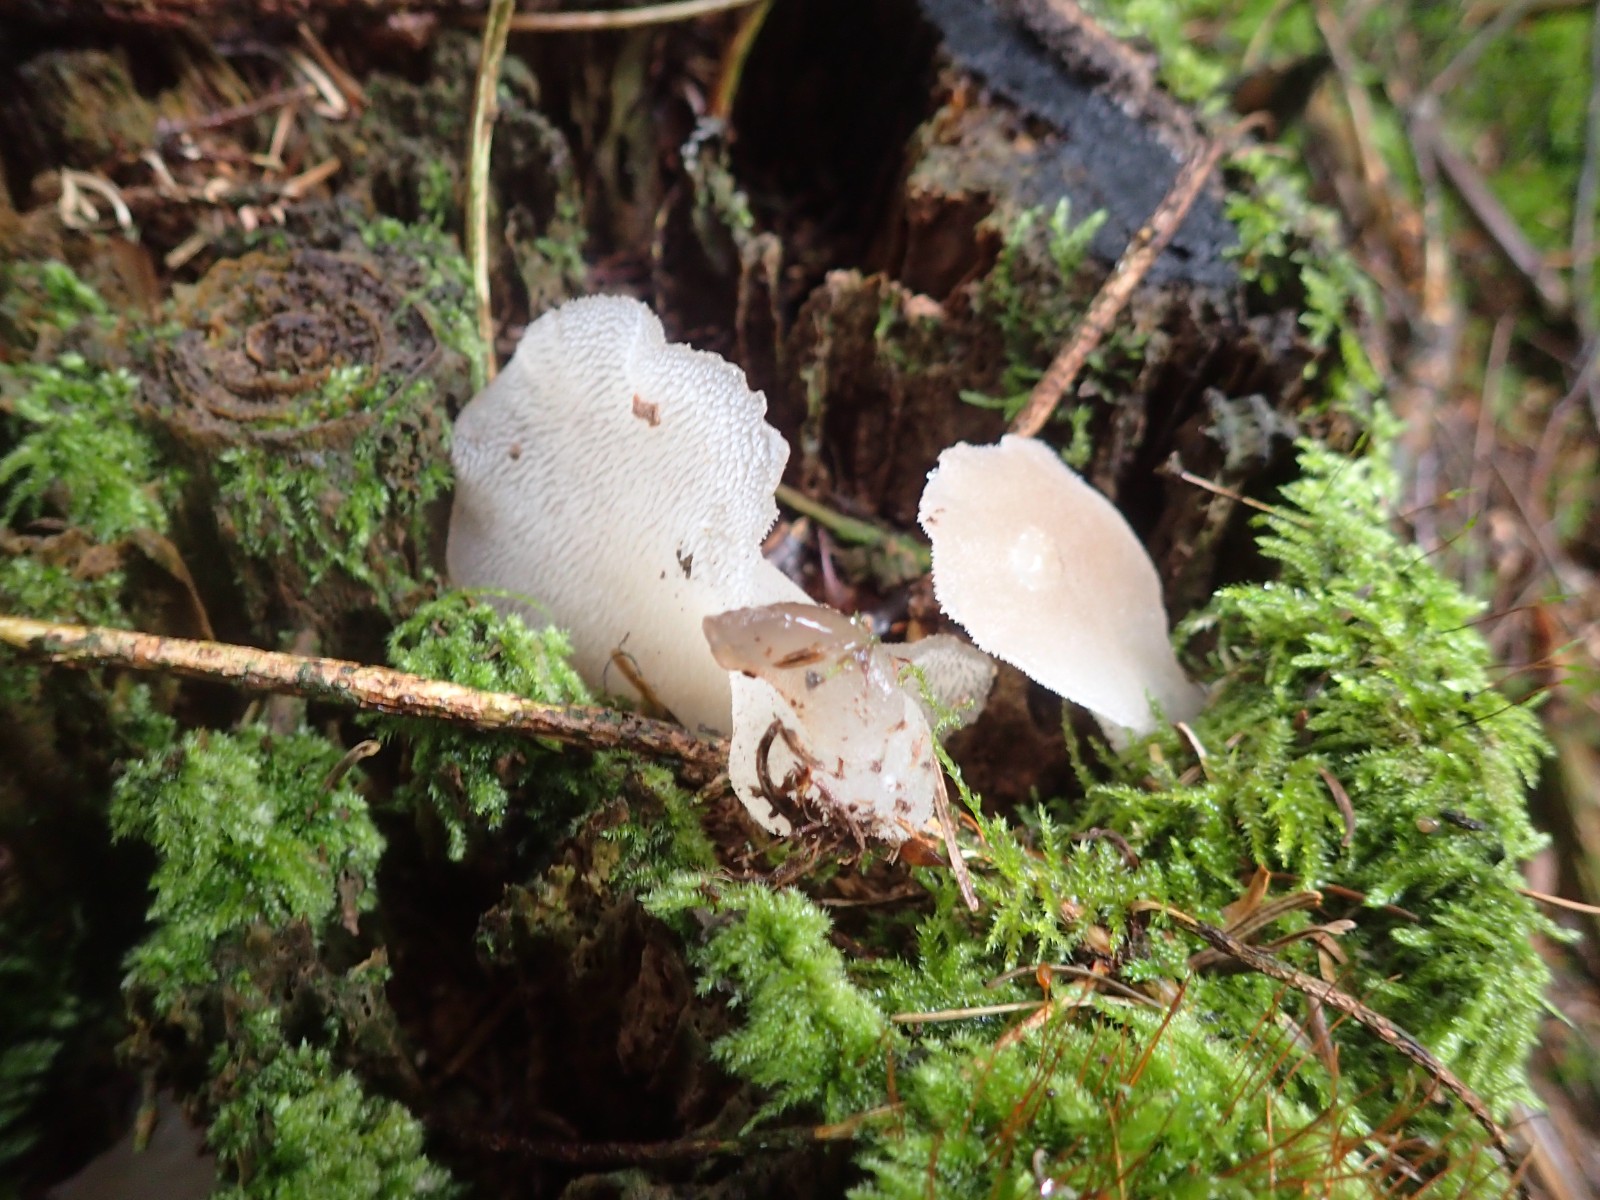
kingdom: Fungi
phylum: Basidiomycota
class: Agaricomycetes
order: Auriculariales
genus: Pseudohydnum
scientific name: Pseudohydnum gelatinosum
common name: bævretand
